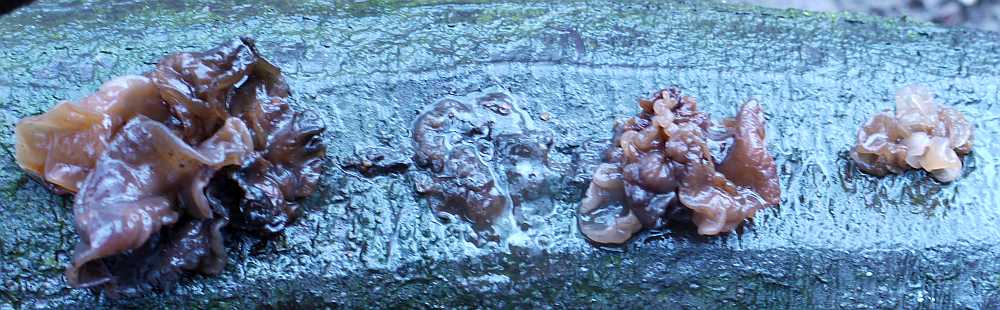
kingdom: Fungi
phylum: Basidiomycota
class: Tremellomycetes
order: Tremellales
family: Tremellaceae
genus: Phaeotremella
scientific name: Phaeotremella frondosa
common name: kæmpe-bævresvamp
